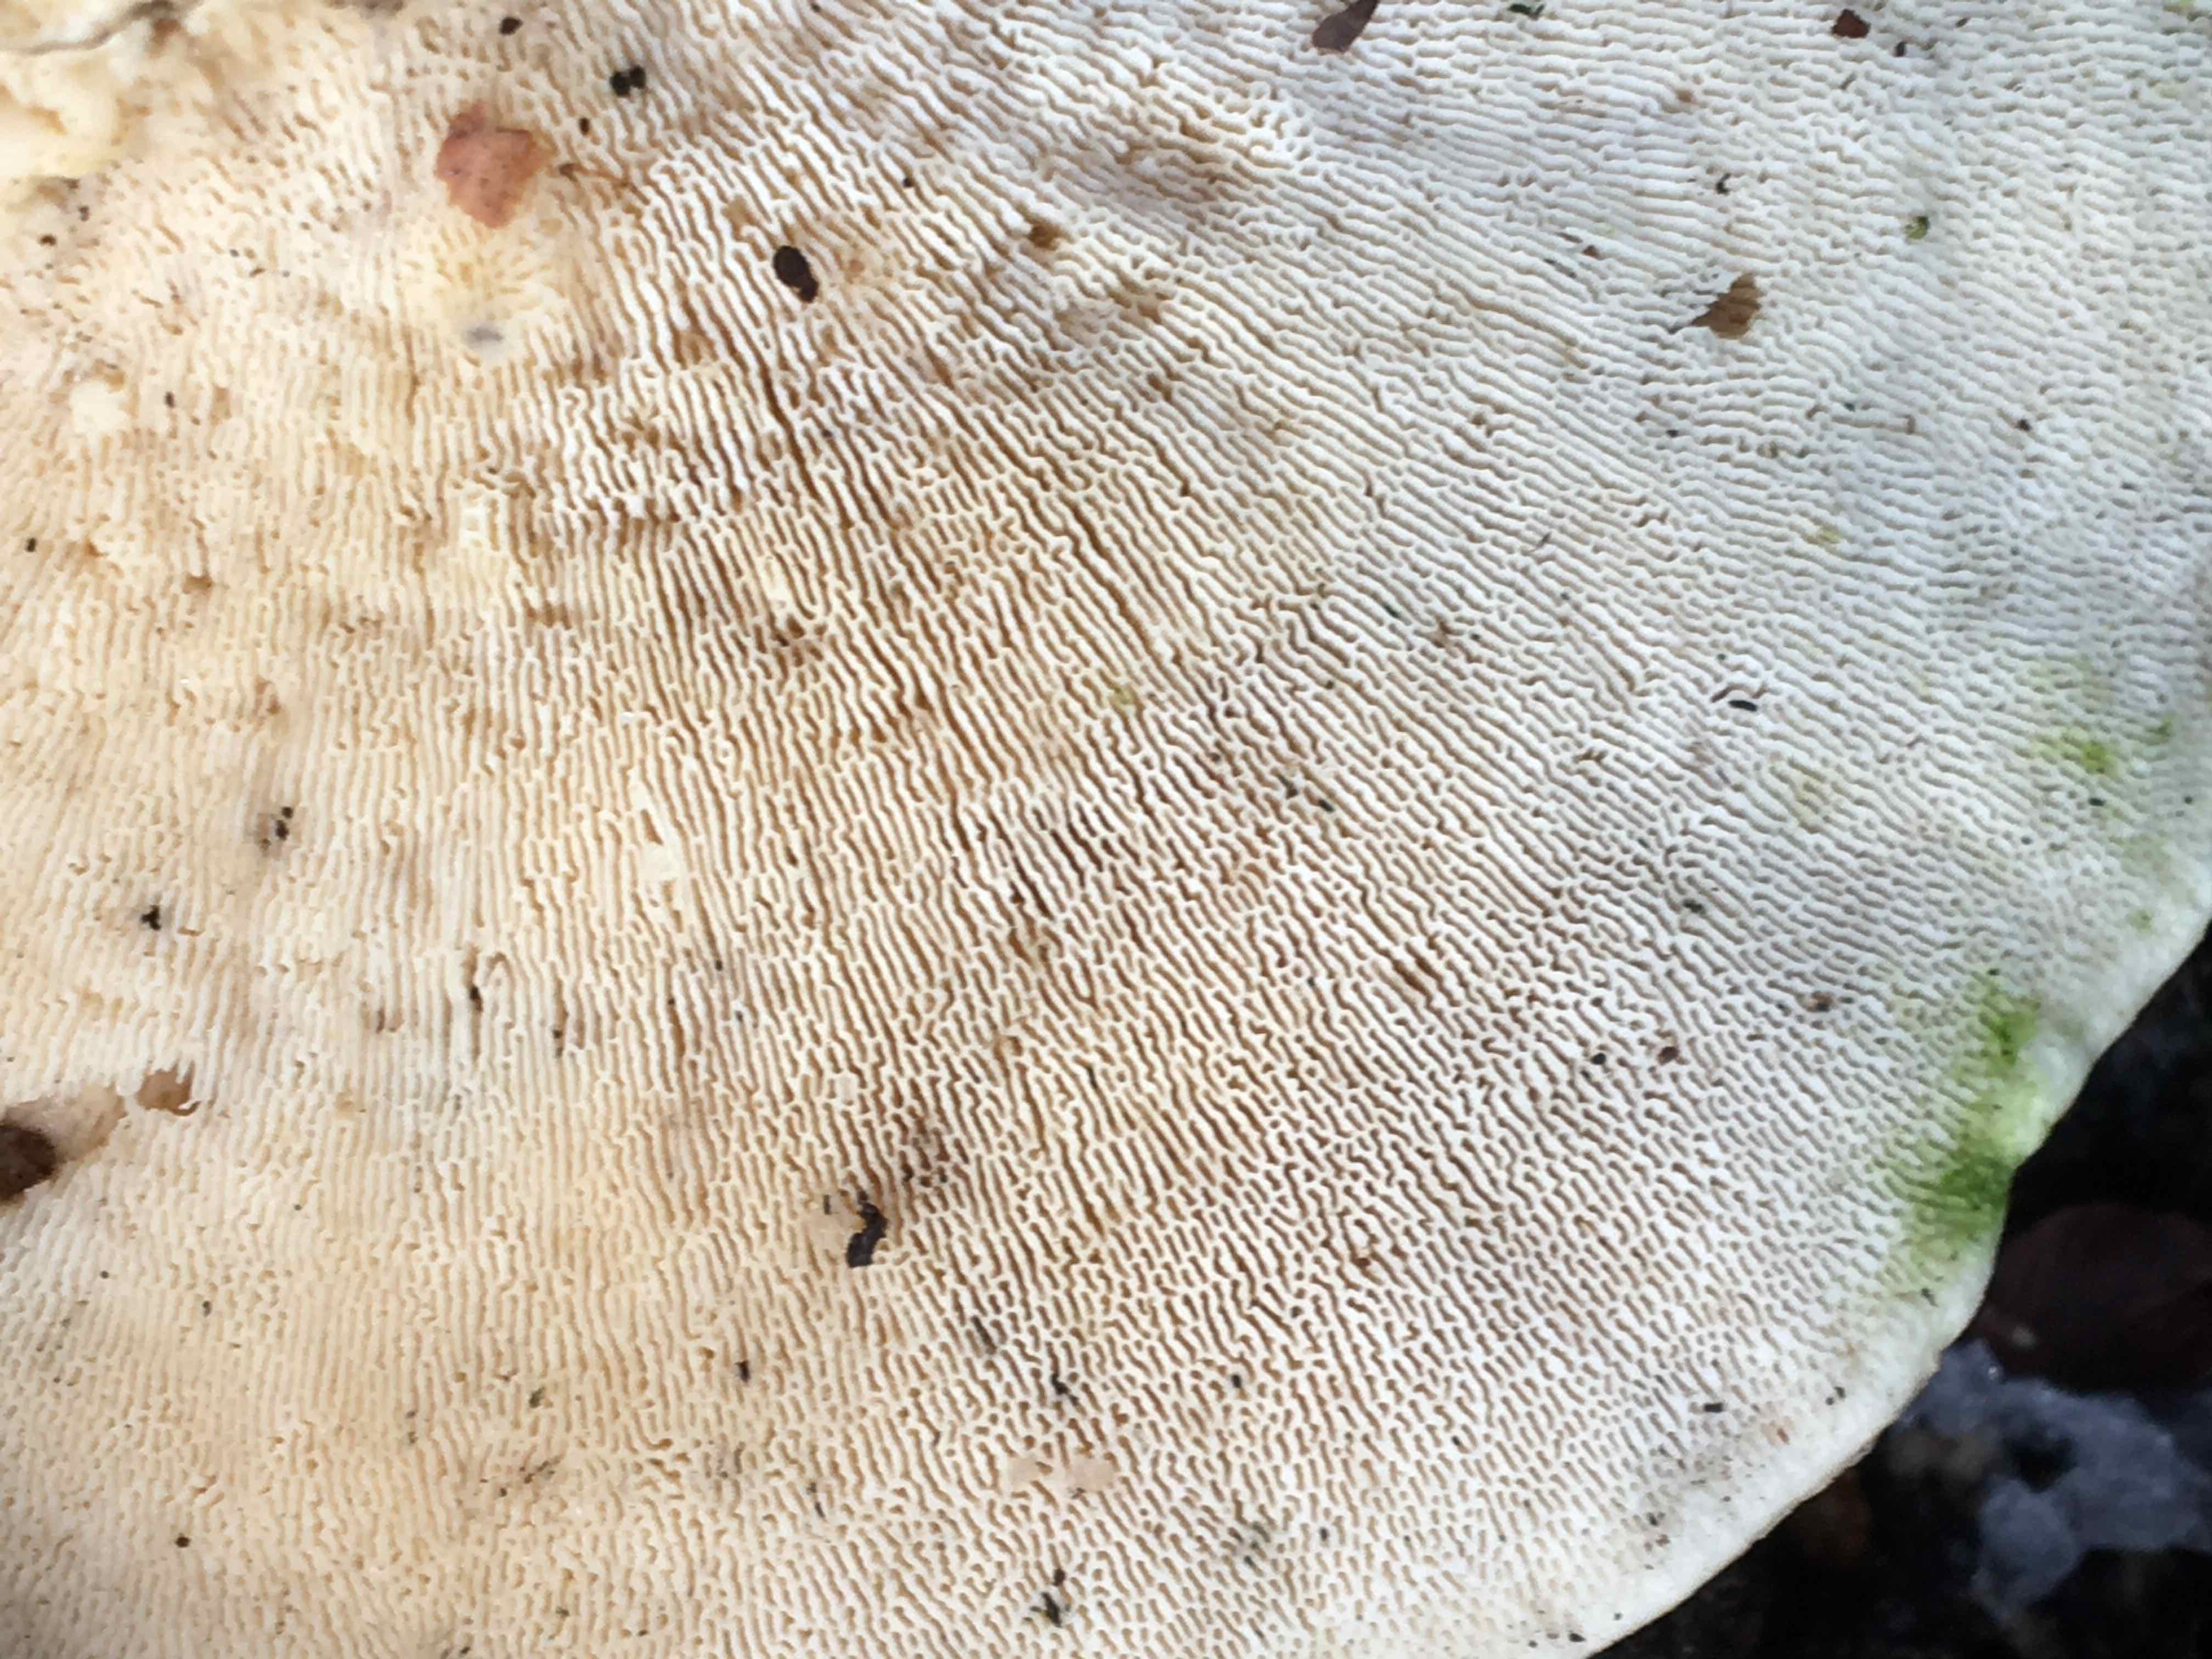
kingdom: Fungi
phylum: Basidiomycota
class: Agaricomycetes
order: Polyporales
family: Polyporaceae
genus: Trametes
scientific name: Trametes gibbosa
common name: puklet læderporesvamp
